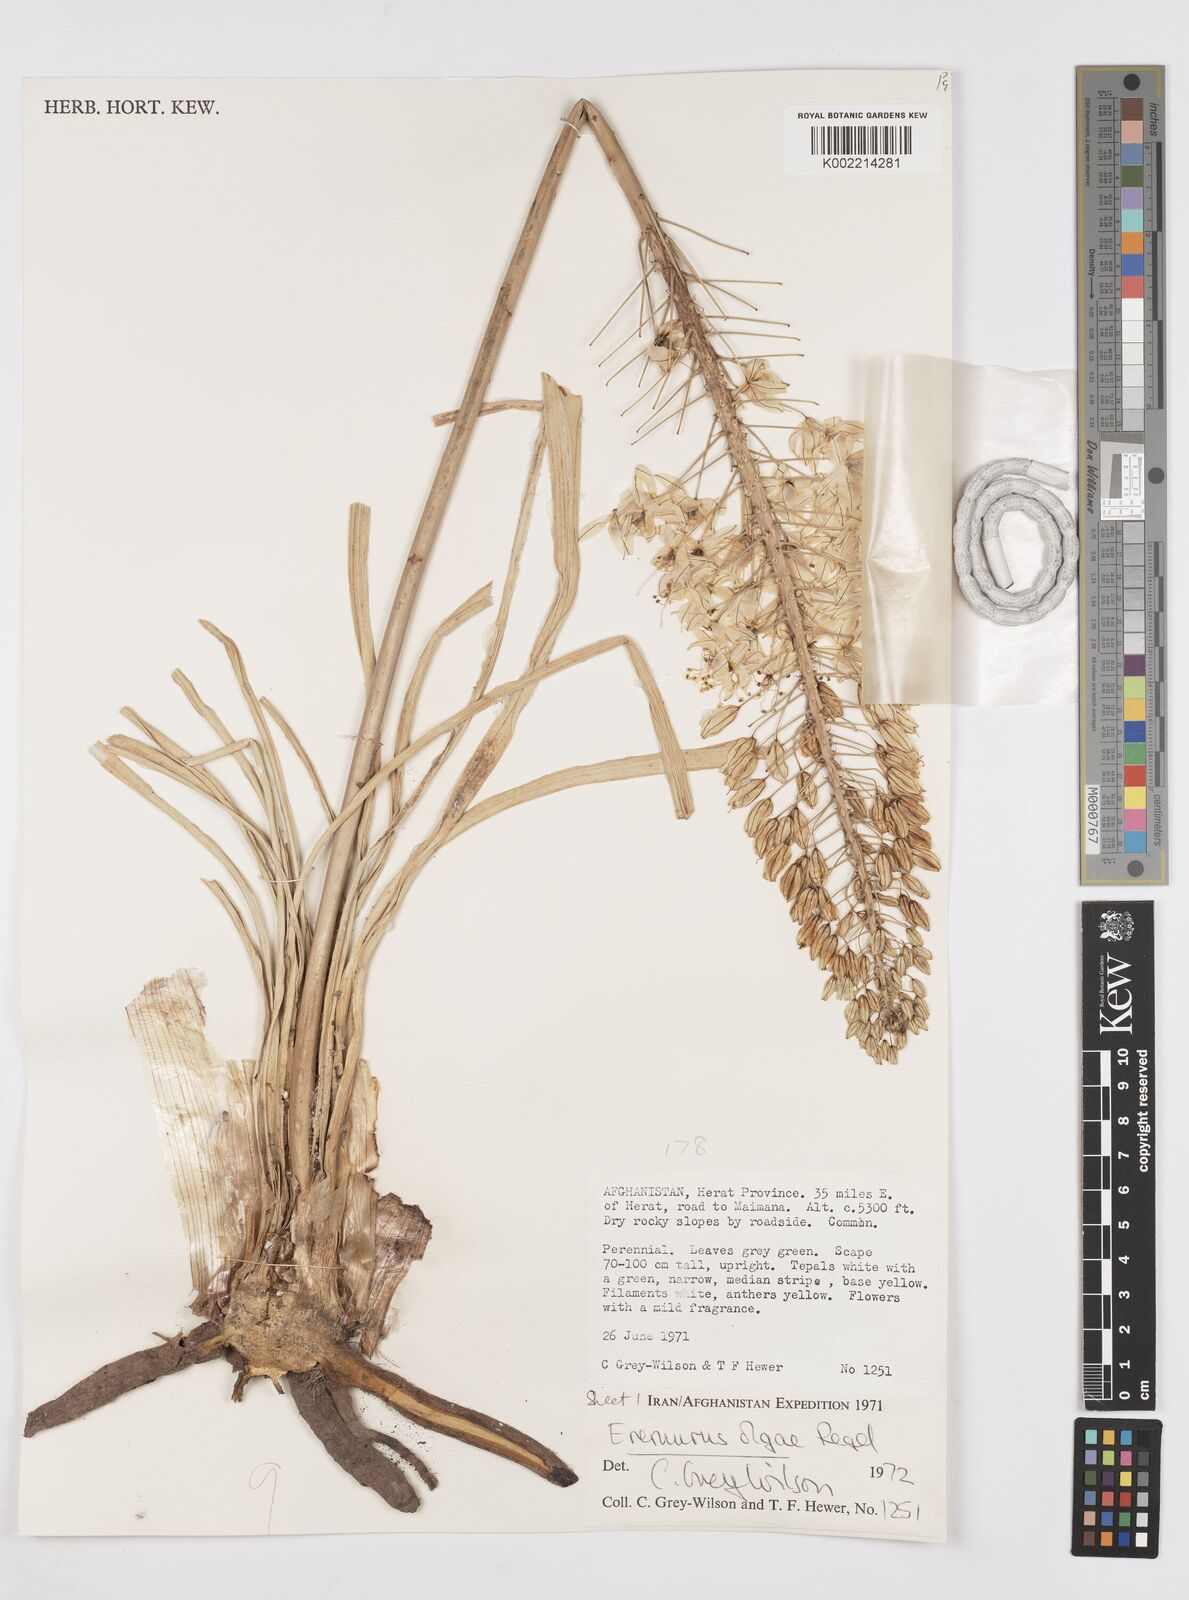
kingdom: Plantae
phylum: Tracheophyta
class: Liliopsida
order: Asparagales
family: Asphodelaceae
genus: Eremurus
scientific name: Eremurus olgae
